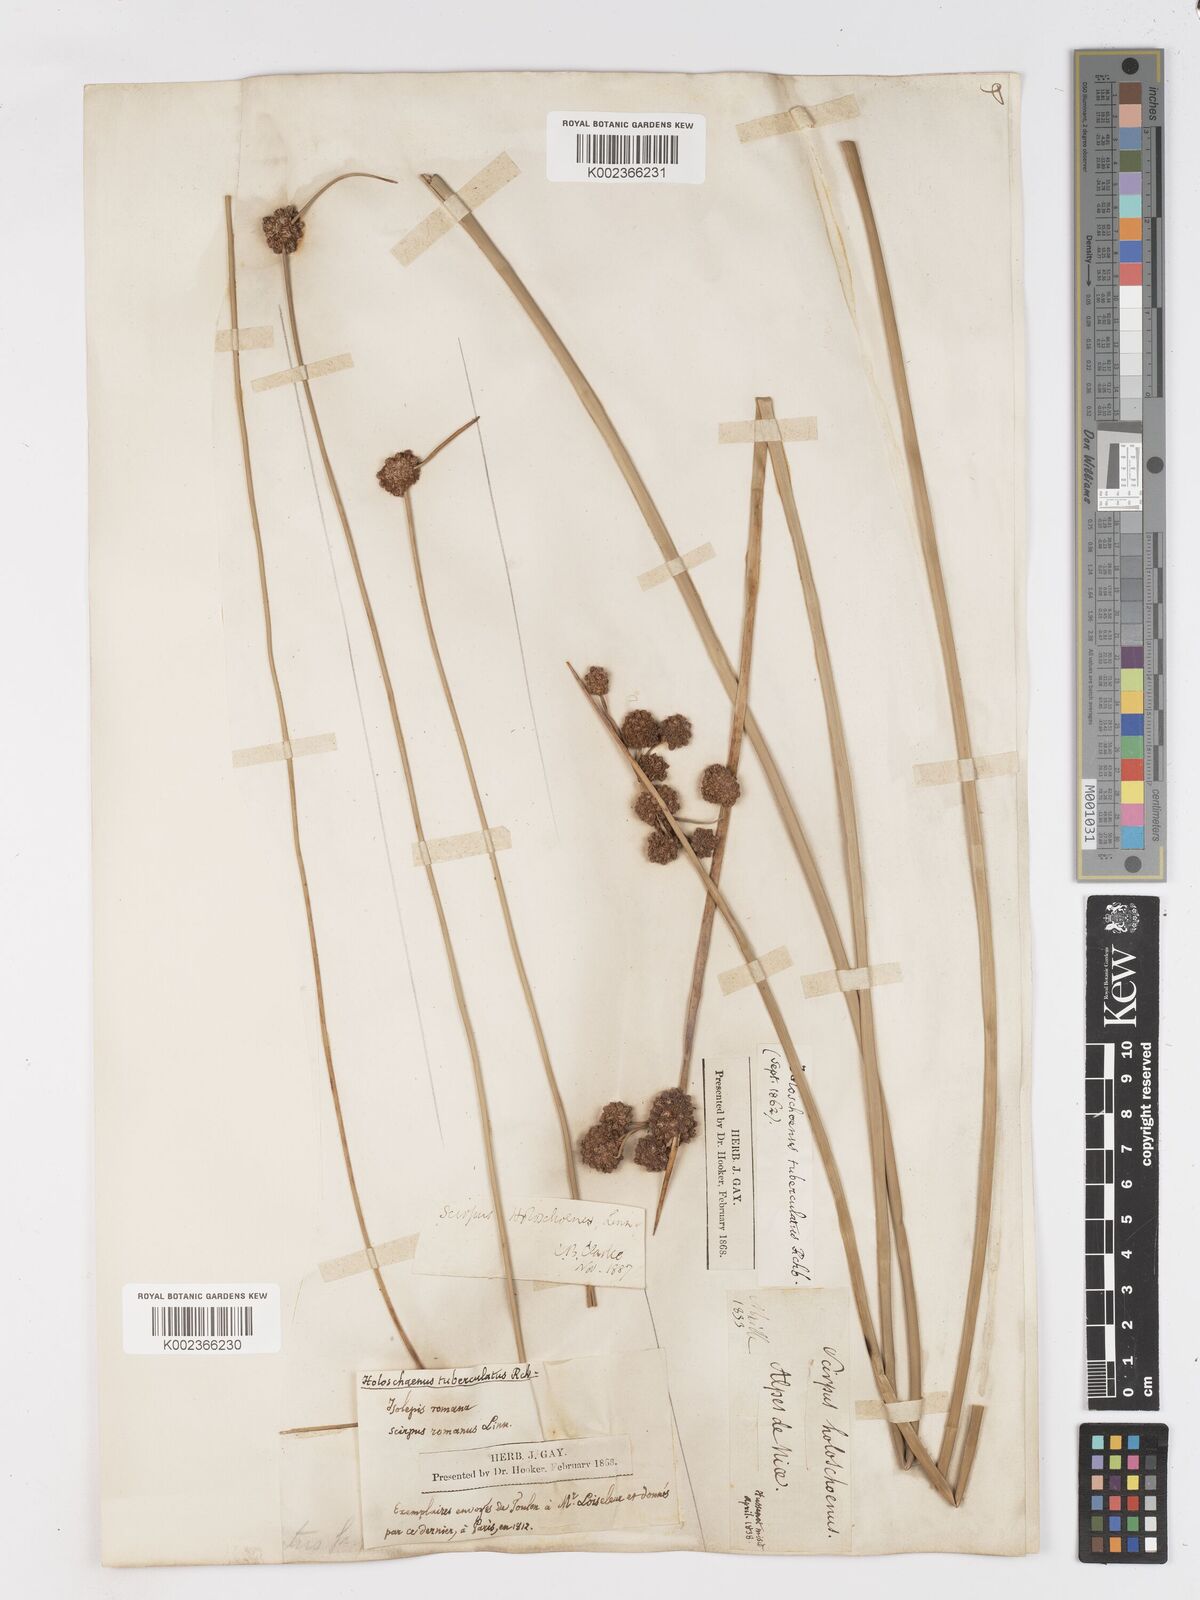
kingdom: Plantae
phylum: Tracheophyta
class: Liliopsida
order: Poales
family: Cyperaceae
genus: Scirpoides
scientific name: Scirpoides holoschoenus
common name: Round-headed club-rush
